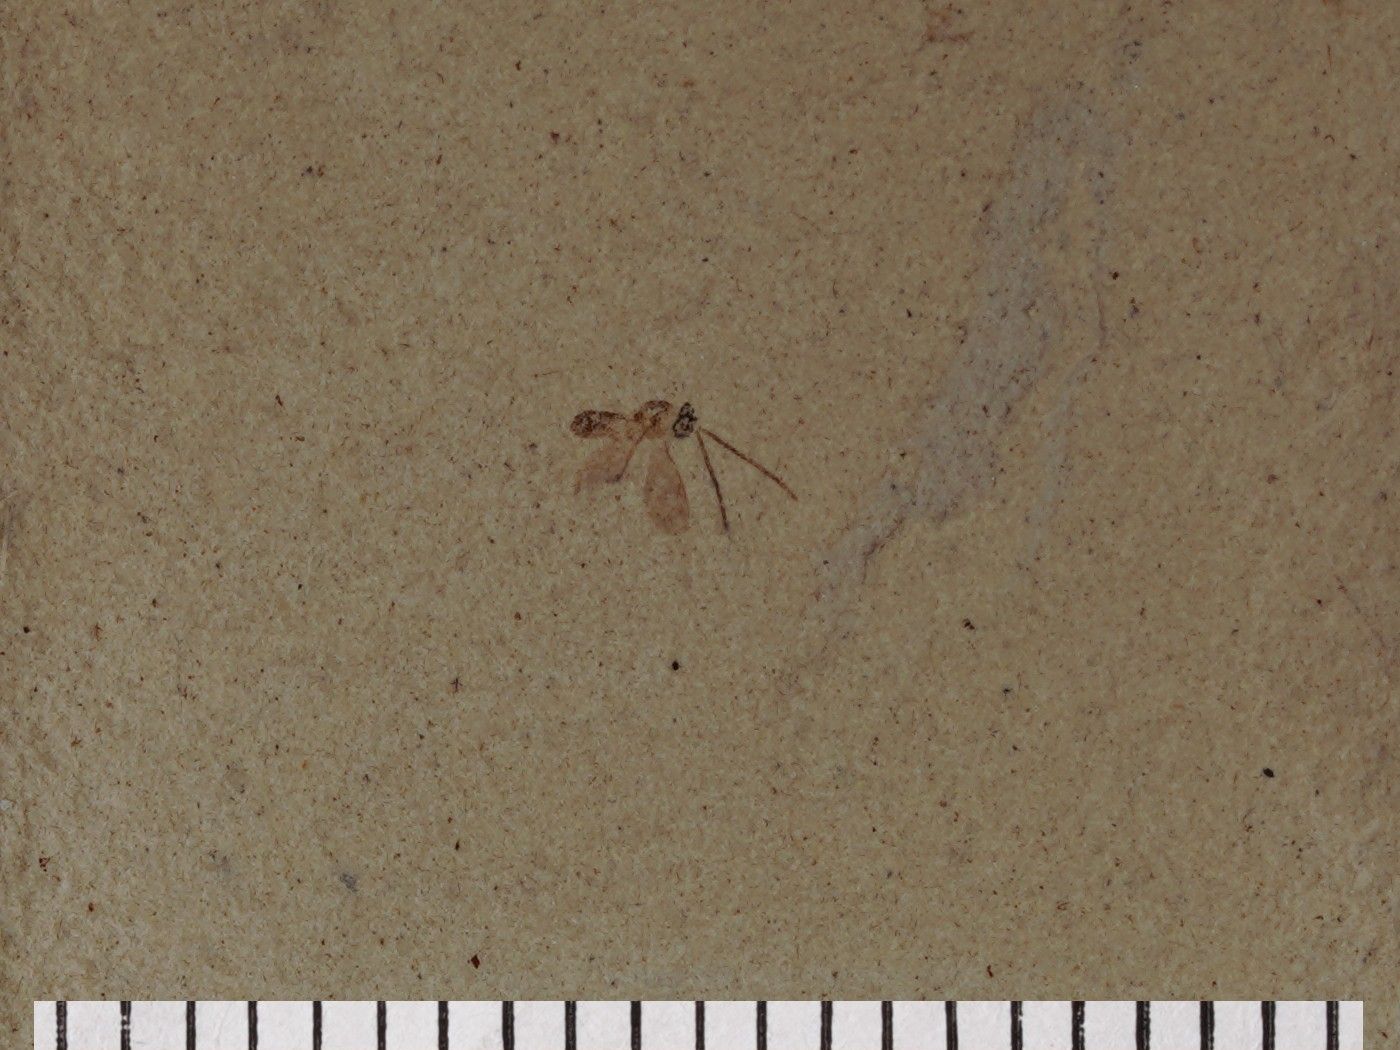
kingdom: Animalia
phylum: Arthropoda
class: Insecta
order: Hymenoptera
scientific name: Hymenoptera
